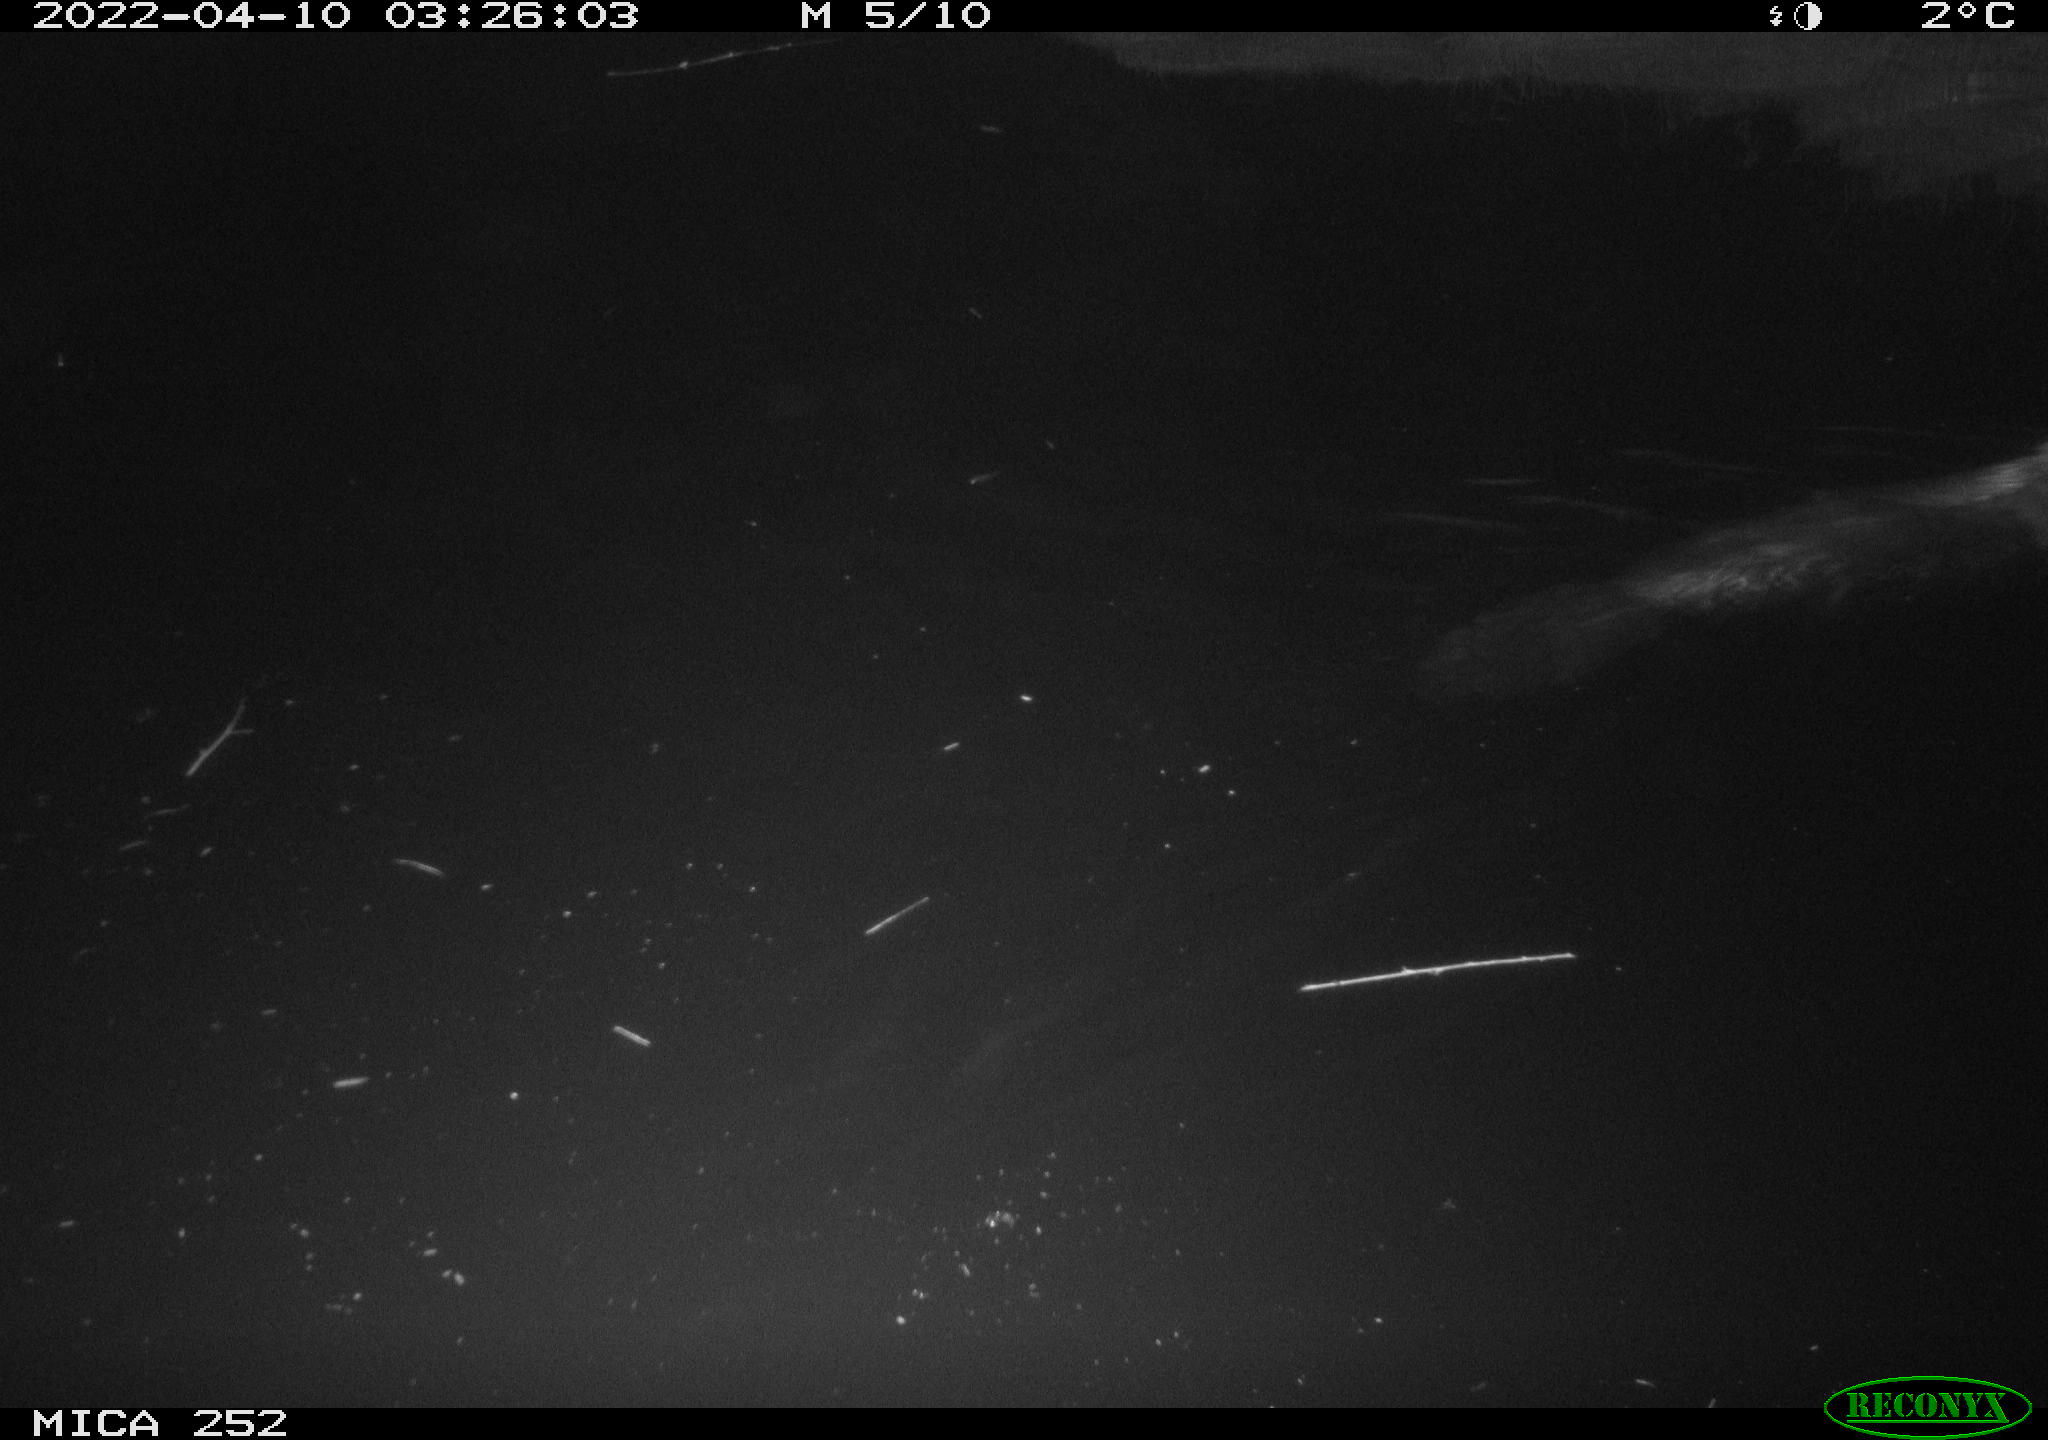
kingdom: Animalia
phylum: Chordata
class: Mammalia
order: Rodentia
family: Castoridae
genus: Castor
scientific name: Castor fiber
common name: Eurasian beaver
